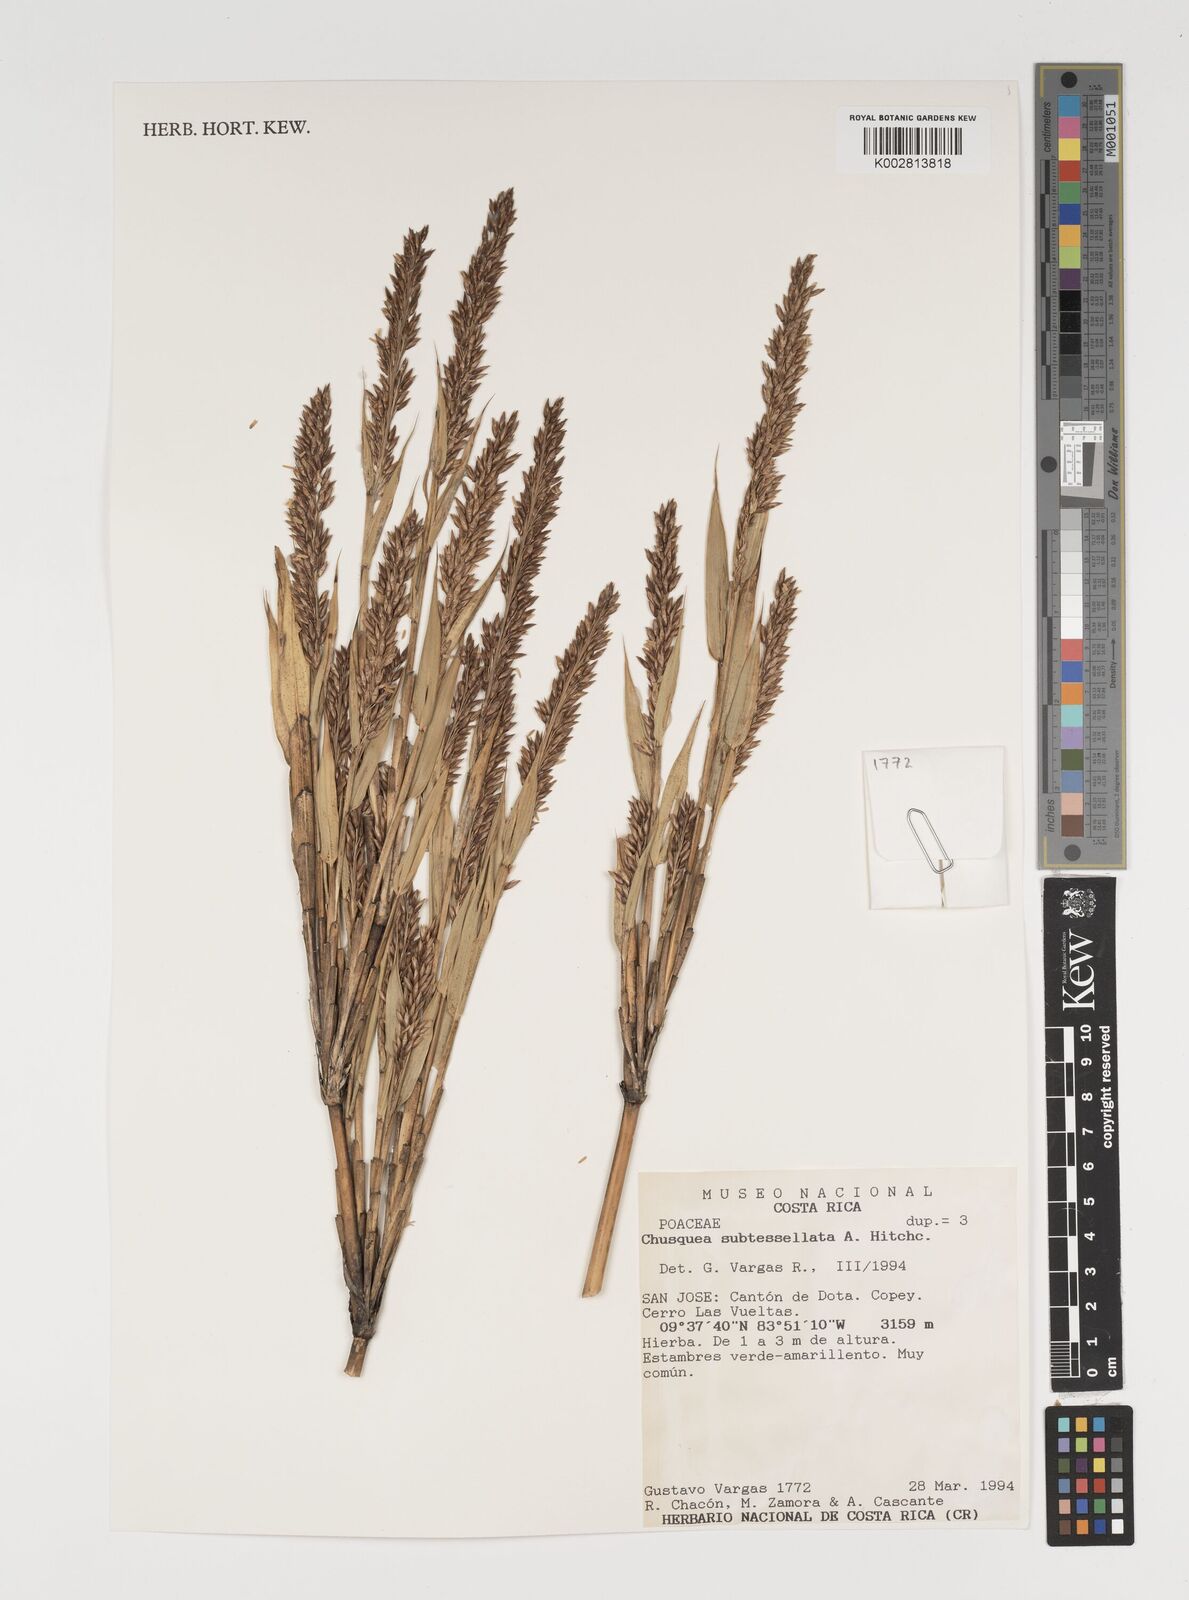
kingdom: Plantae
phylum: Tracheophyta
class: Liliopsida
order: Poales
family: Poaceae
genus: Chusquea
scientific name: Chusquea subtessellata
